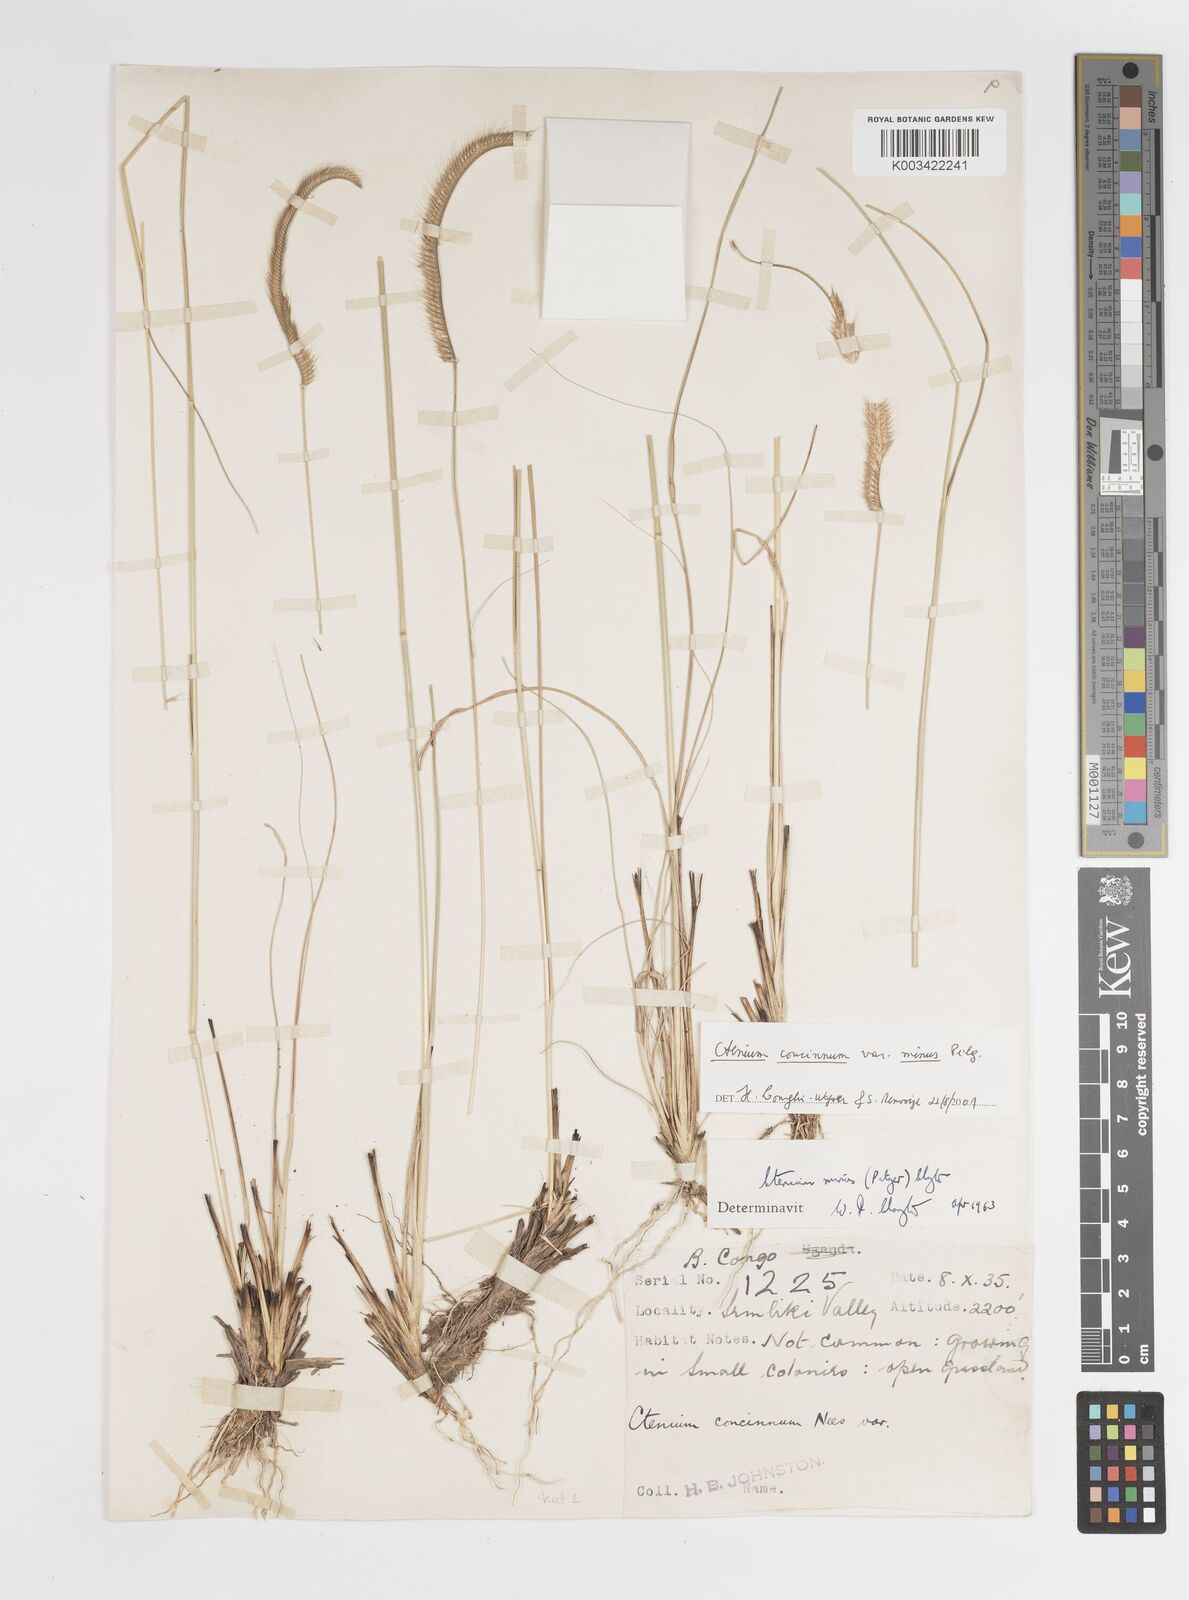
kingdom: Plantae
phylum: Tracheophyta
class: Liliopsida
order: Poales
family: Poaceae
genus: Ctenium
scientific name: Ctenium concinnum
